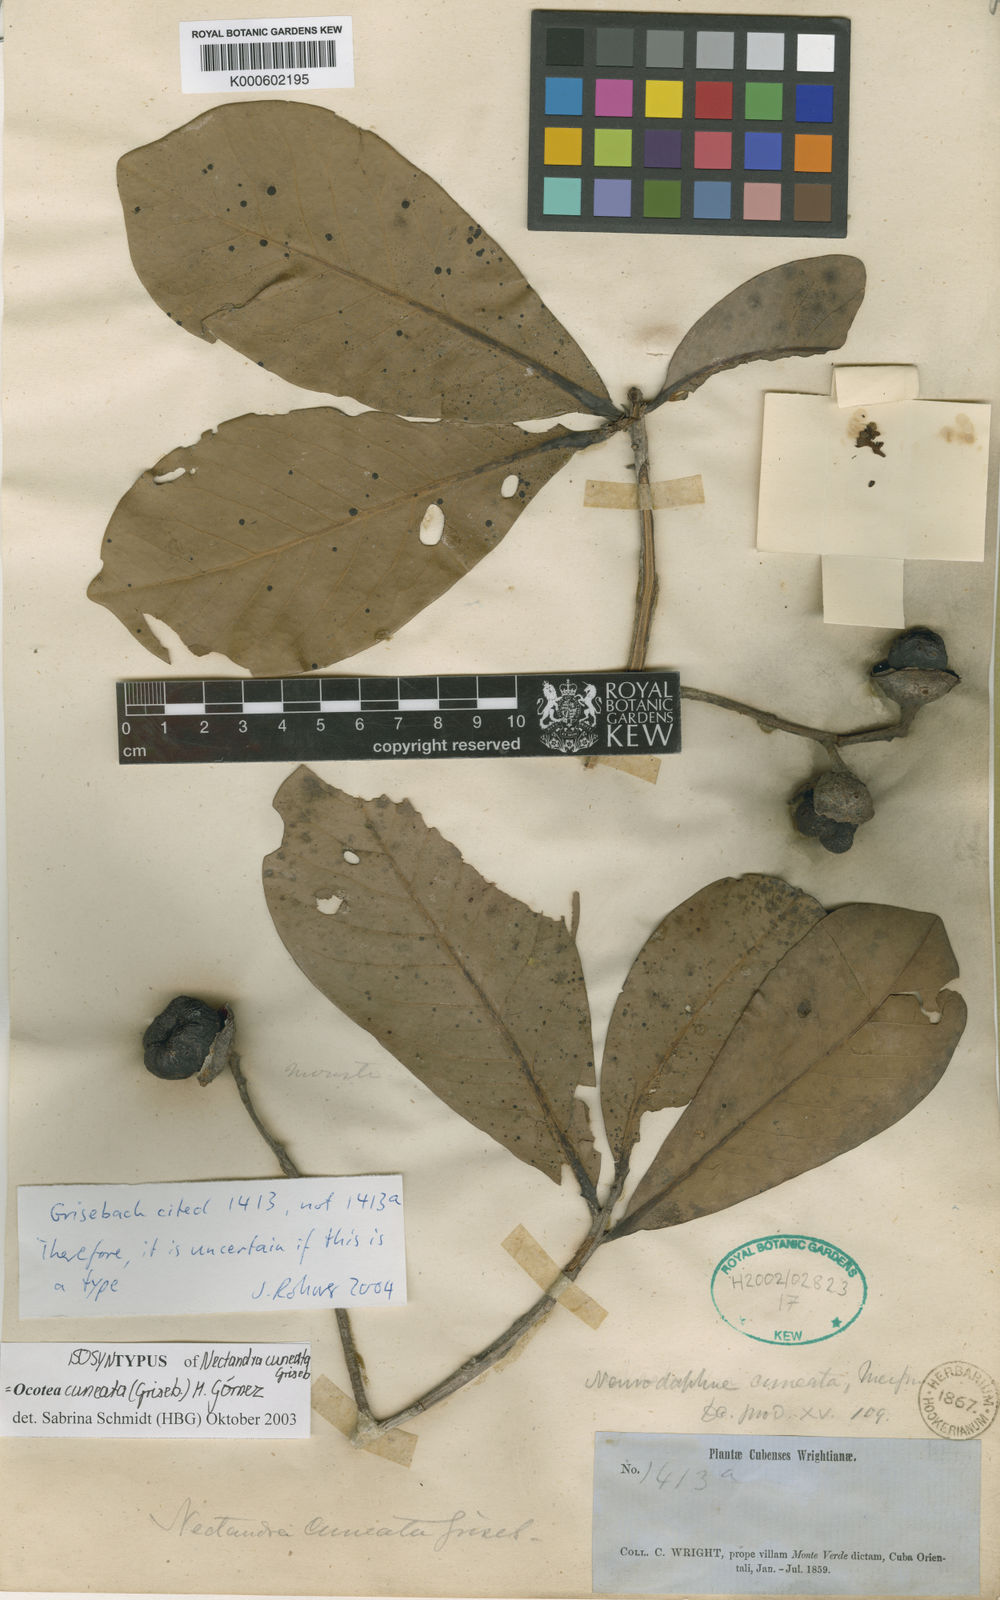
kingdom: Plantae
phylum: Tracheophyta
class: Magnoliopsida
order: Laurales
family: Lauraceae
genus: Ocotea
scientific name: Ocotea
